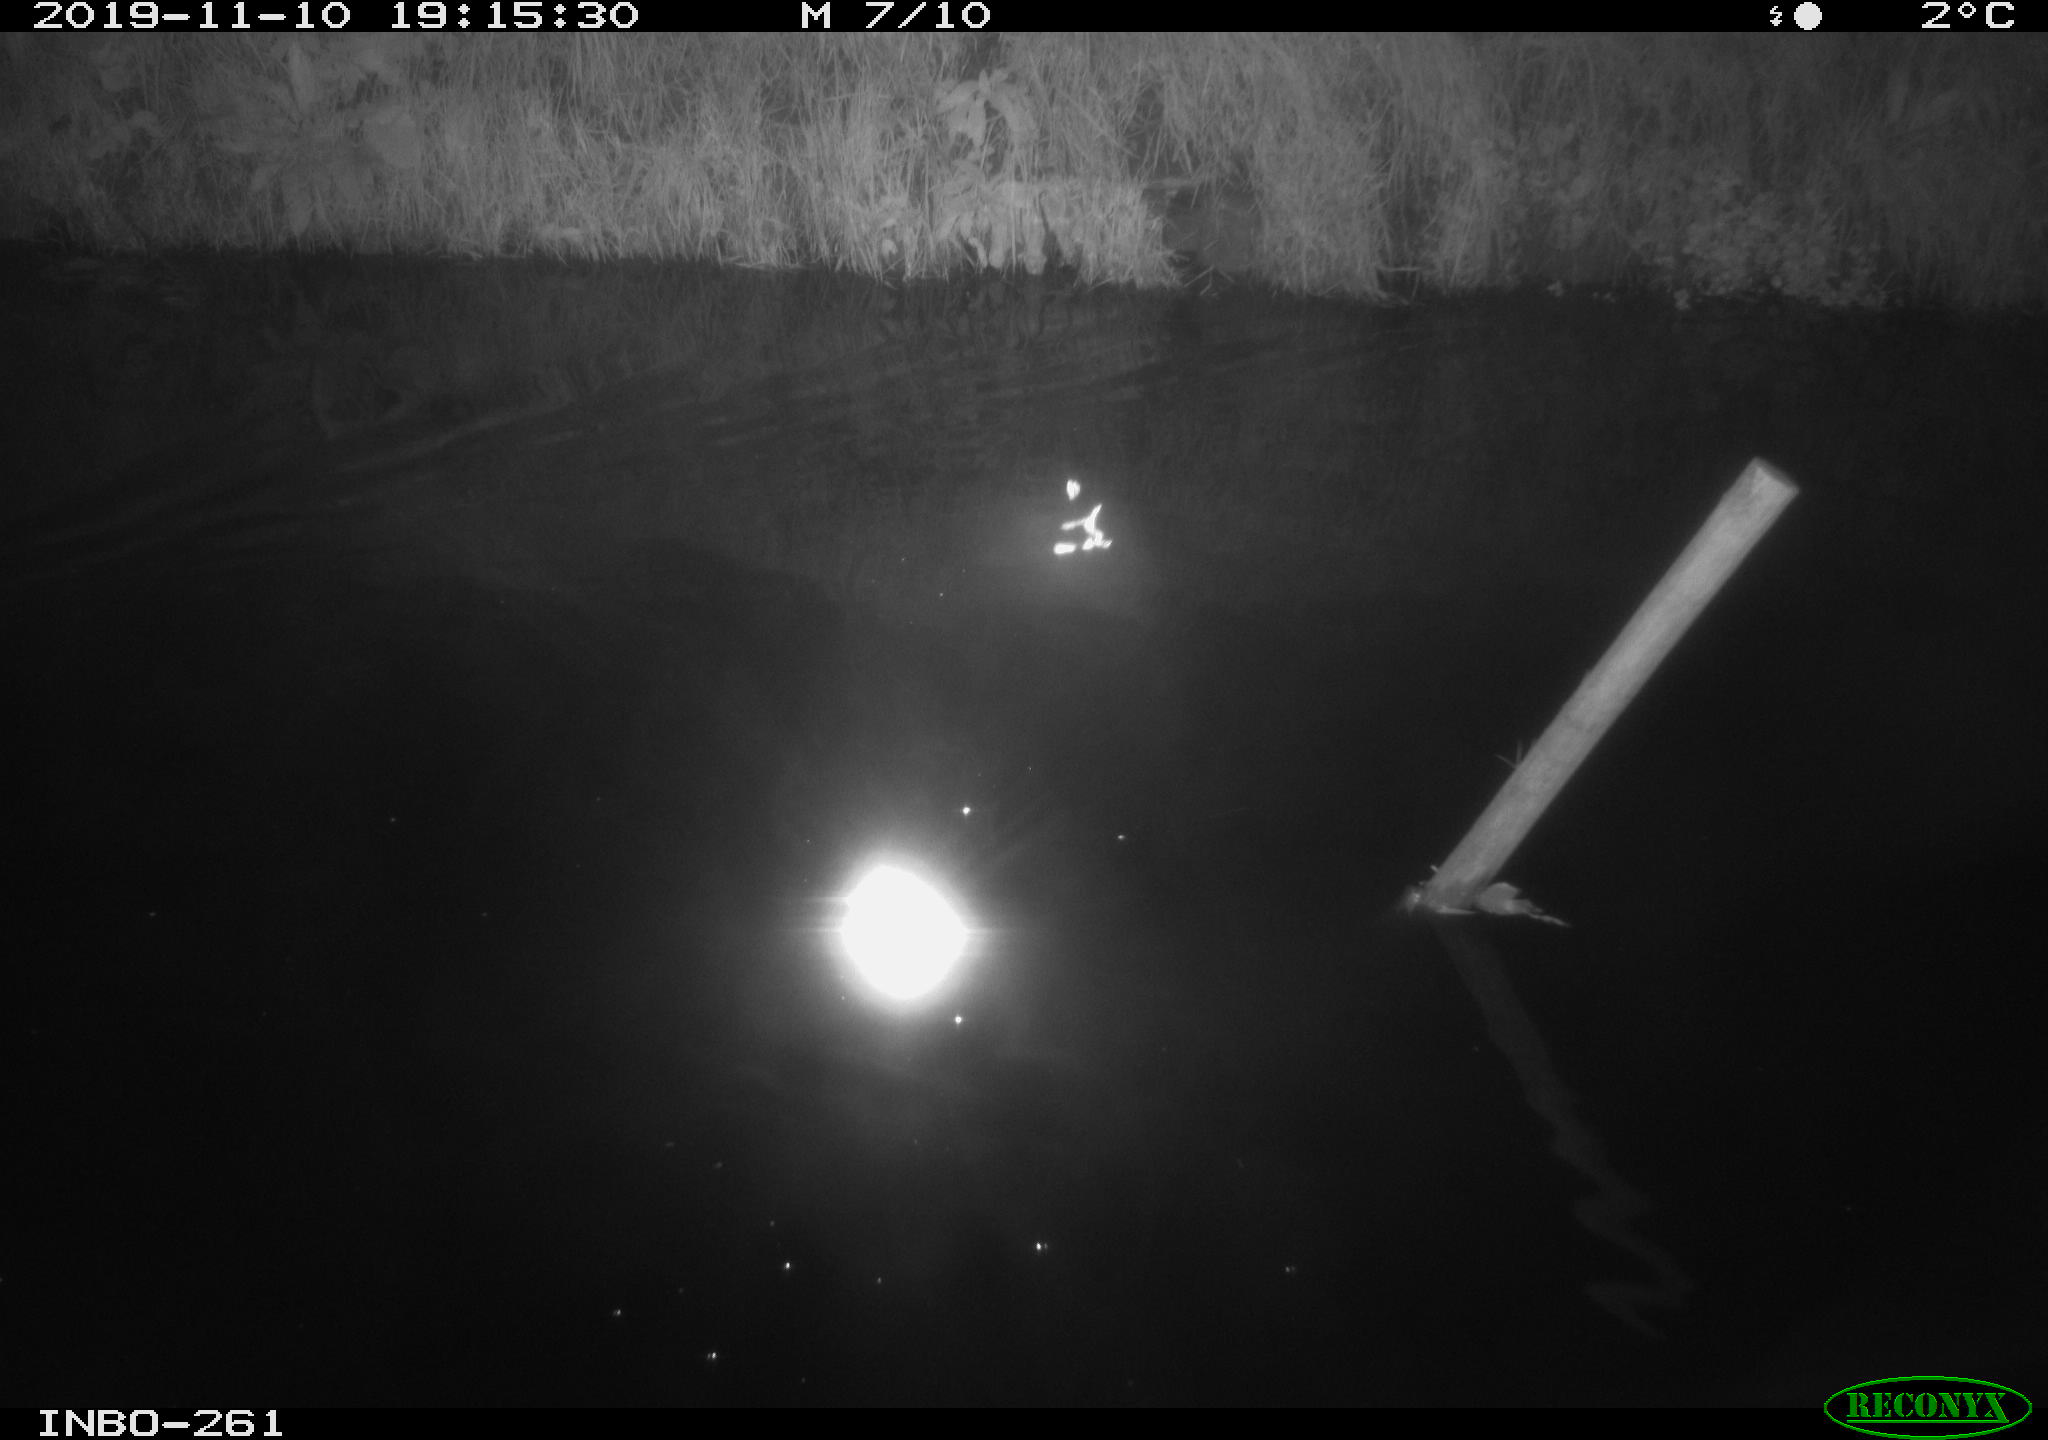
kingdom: Animalia
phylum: Chordata
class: Aves
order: Anseriformes
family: Anatidae
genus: Anas
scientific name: Anas platyrhynchos
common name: Mallard
